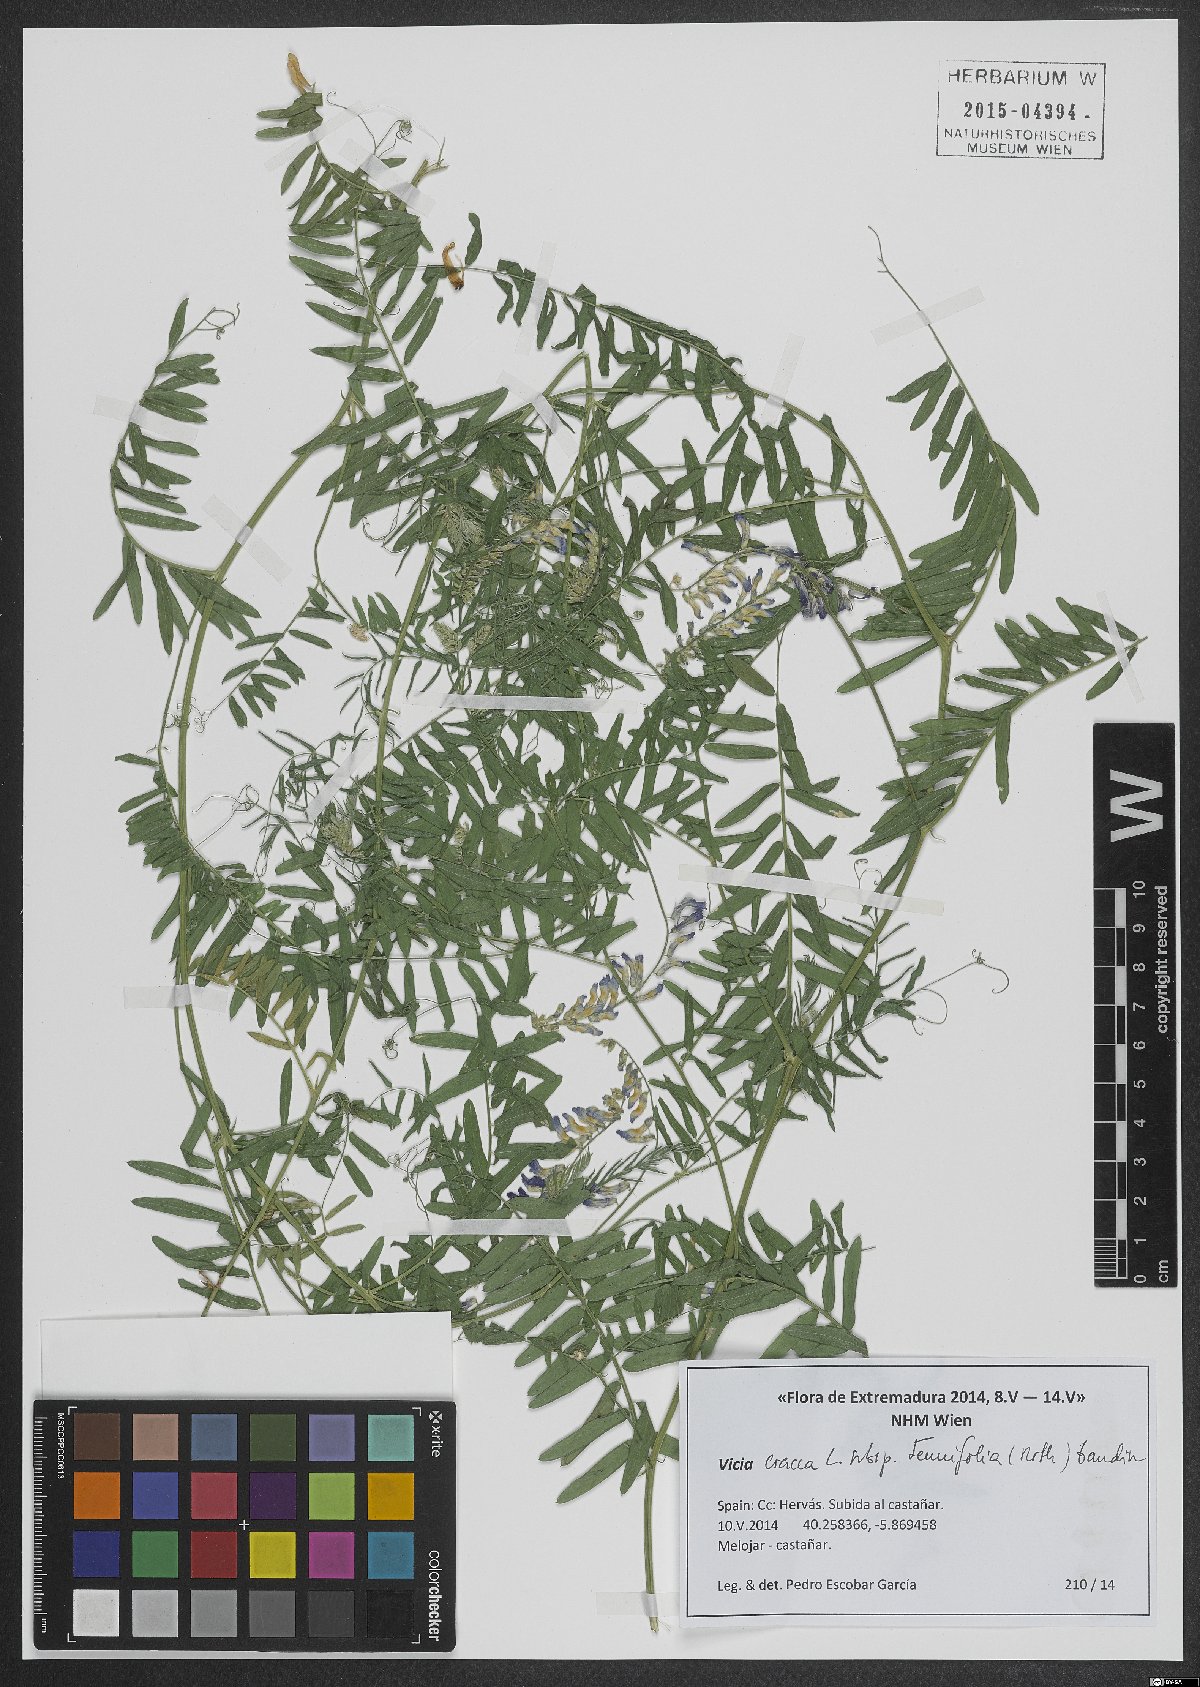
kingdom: Plantae
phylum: Tracheophyta
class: Magnoliopsida
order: Fabales
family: Fabaceae
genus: Vicia
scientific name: Vicia tenuifolia
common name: Fine-leaved vetch
